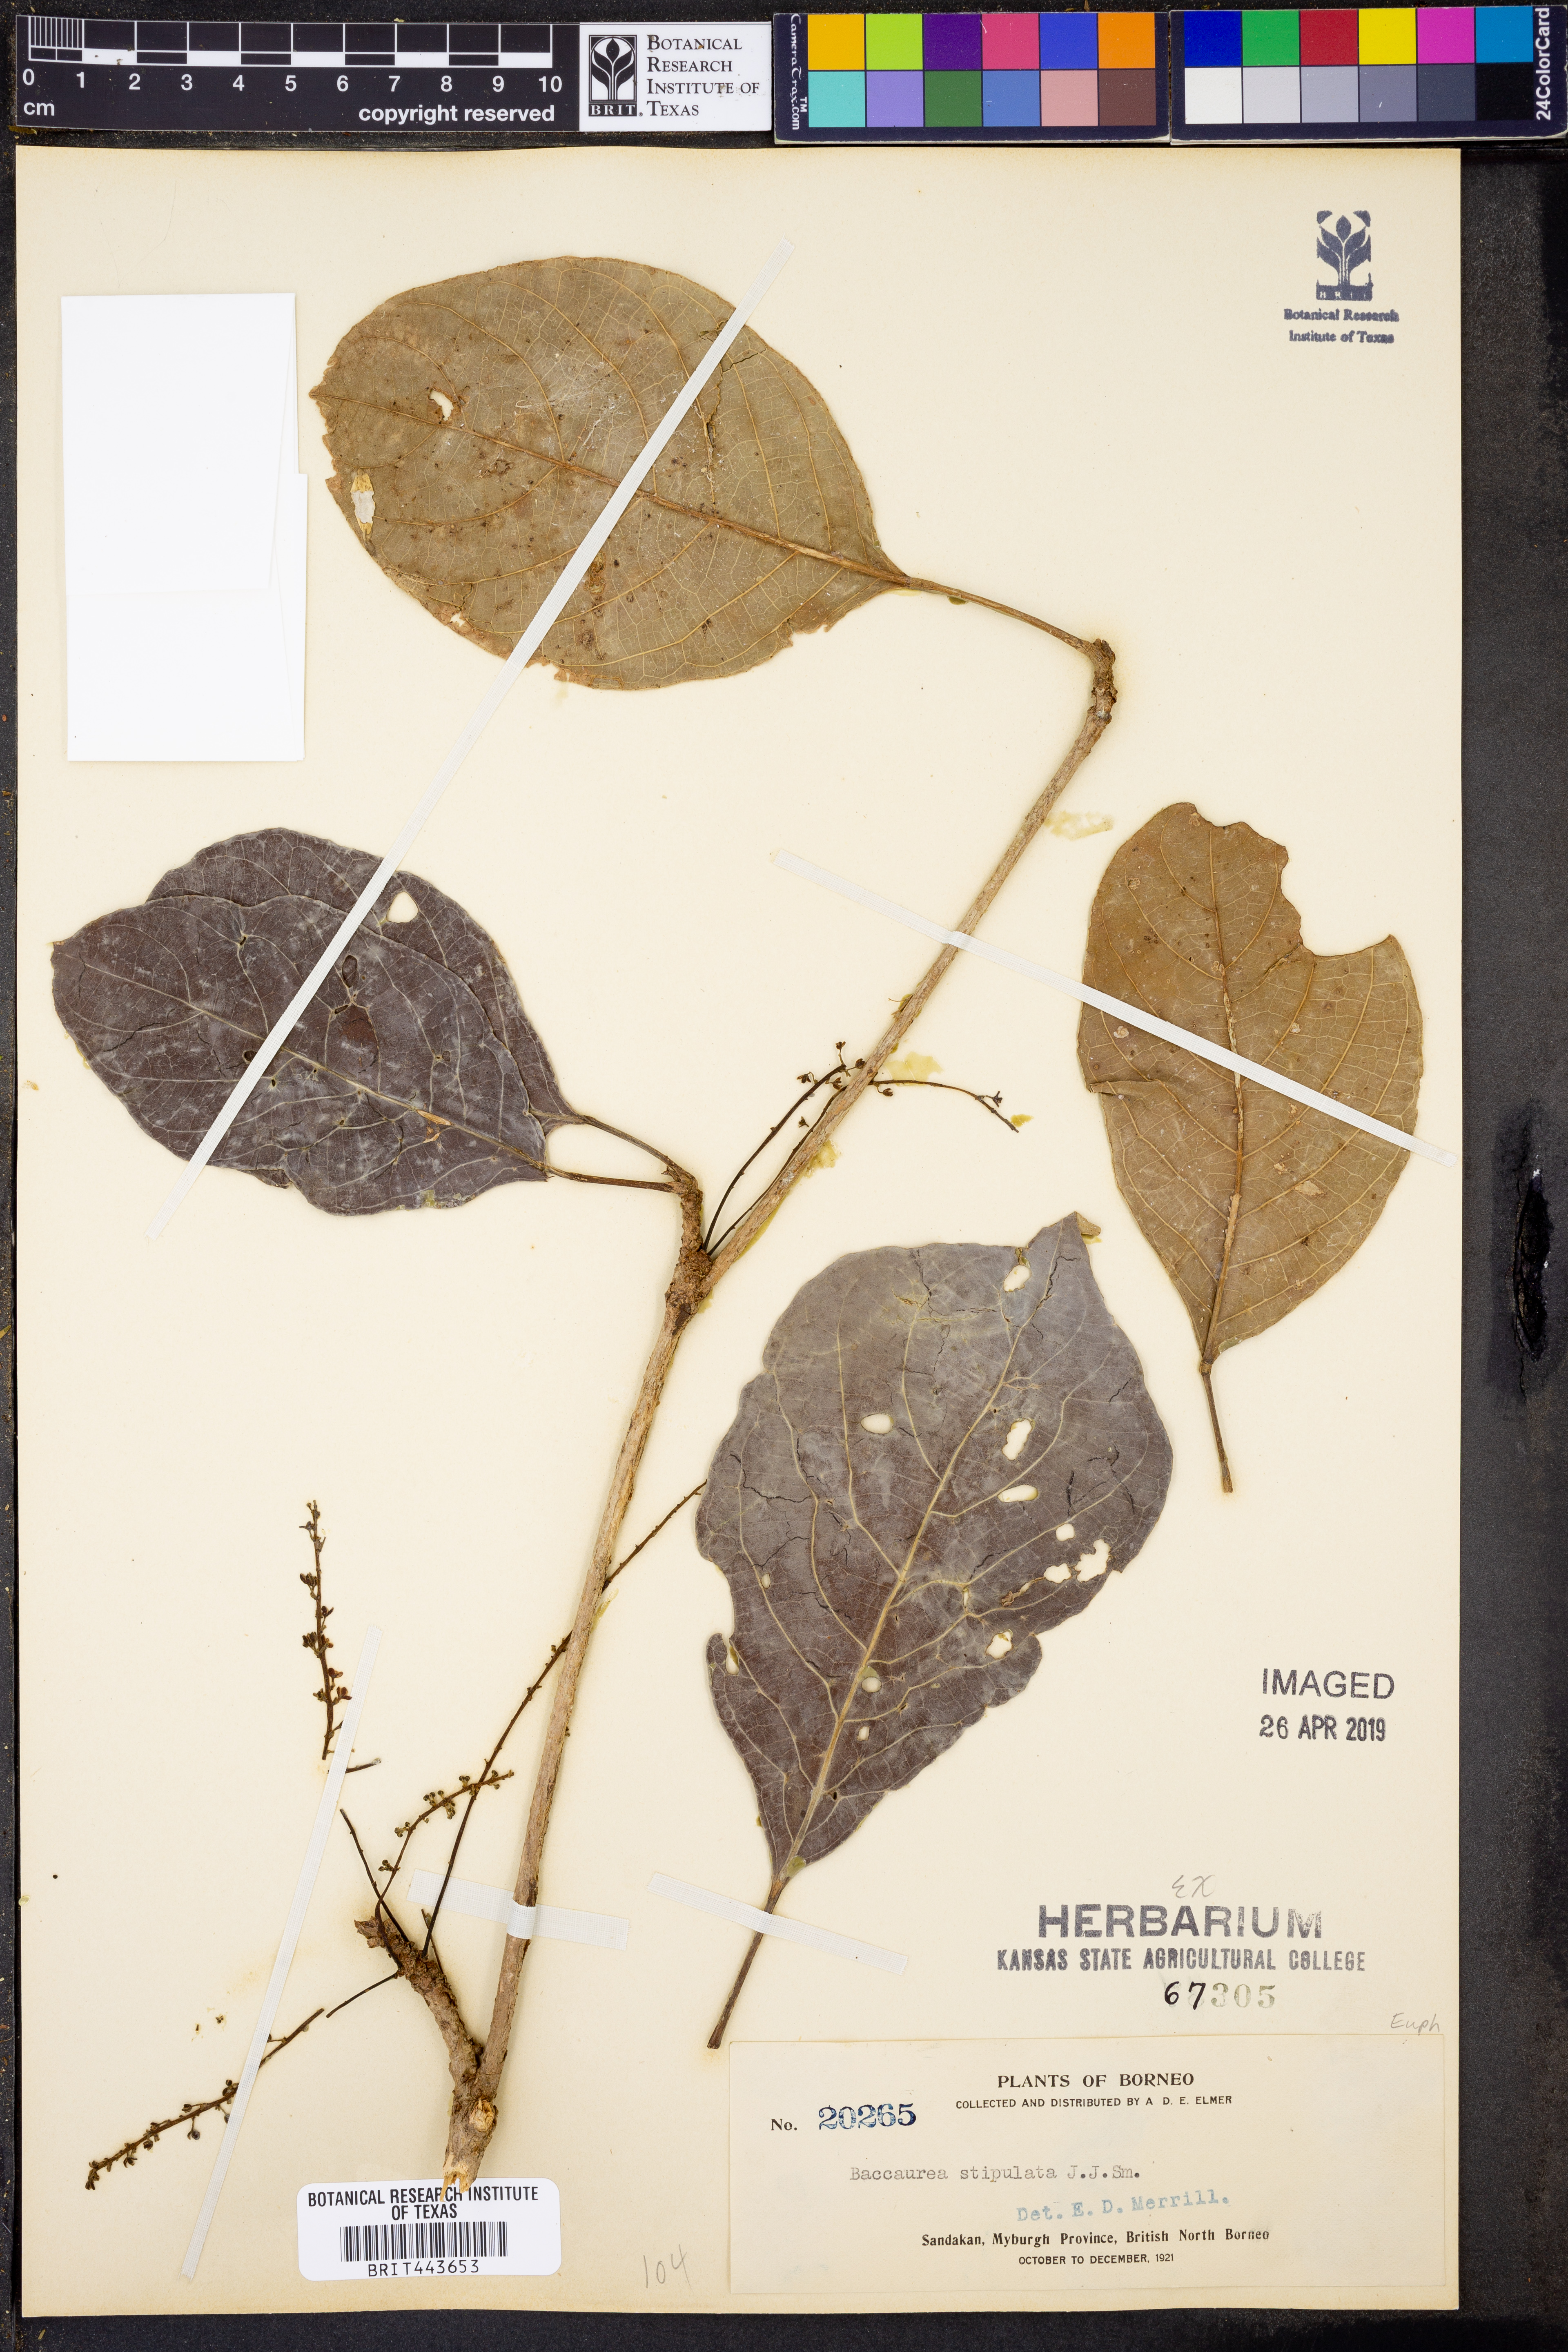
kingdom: Plantae
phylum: Tracheophyta
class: Magnoliopsida
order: Malpighiales
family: Phyllanthaceae
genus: Baccaurea
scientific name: Baccaurea tetrandra
